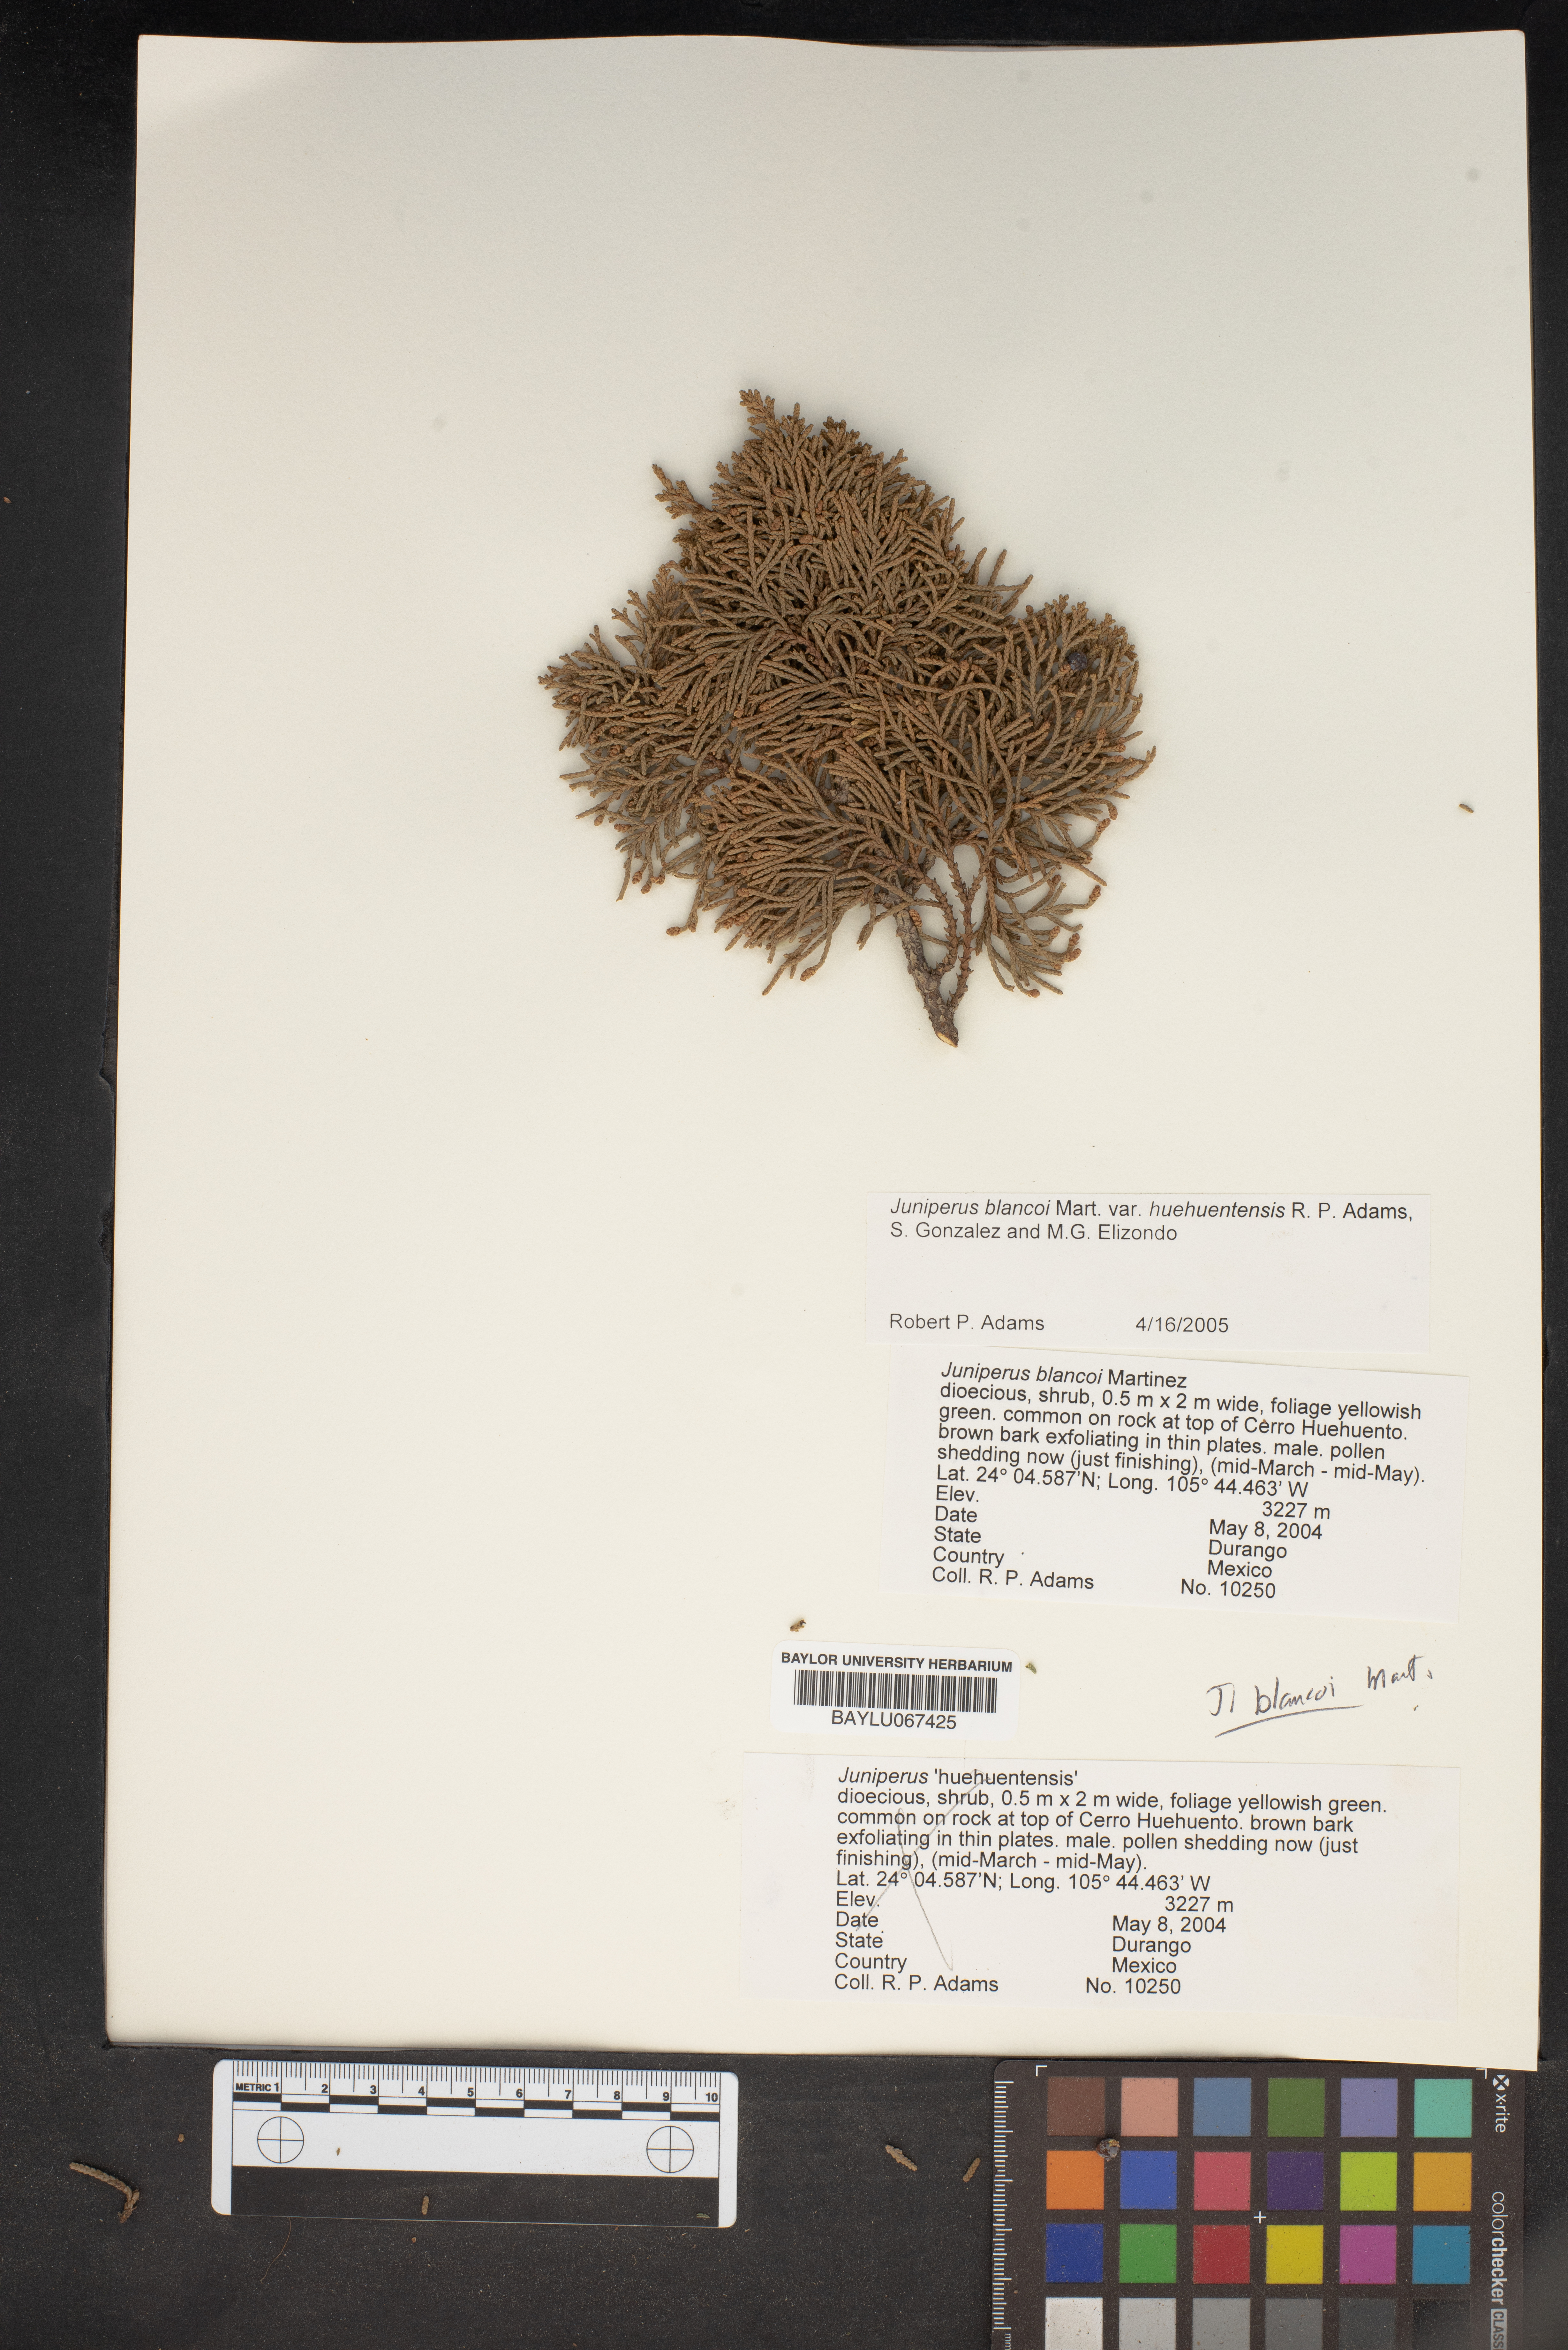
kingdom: Plantae
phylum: Tracheophyta
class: Pinopsida
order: Pinales
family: Cupressaceae
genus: Juniperus
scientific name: Juniperus blancoi
